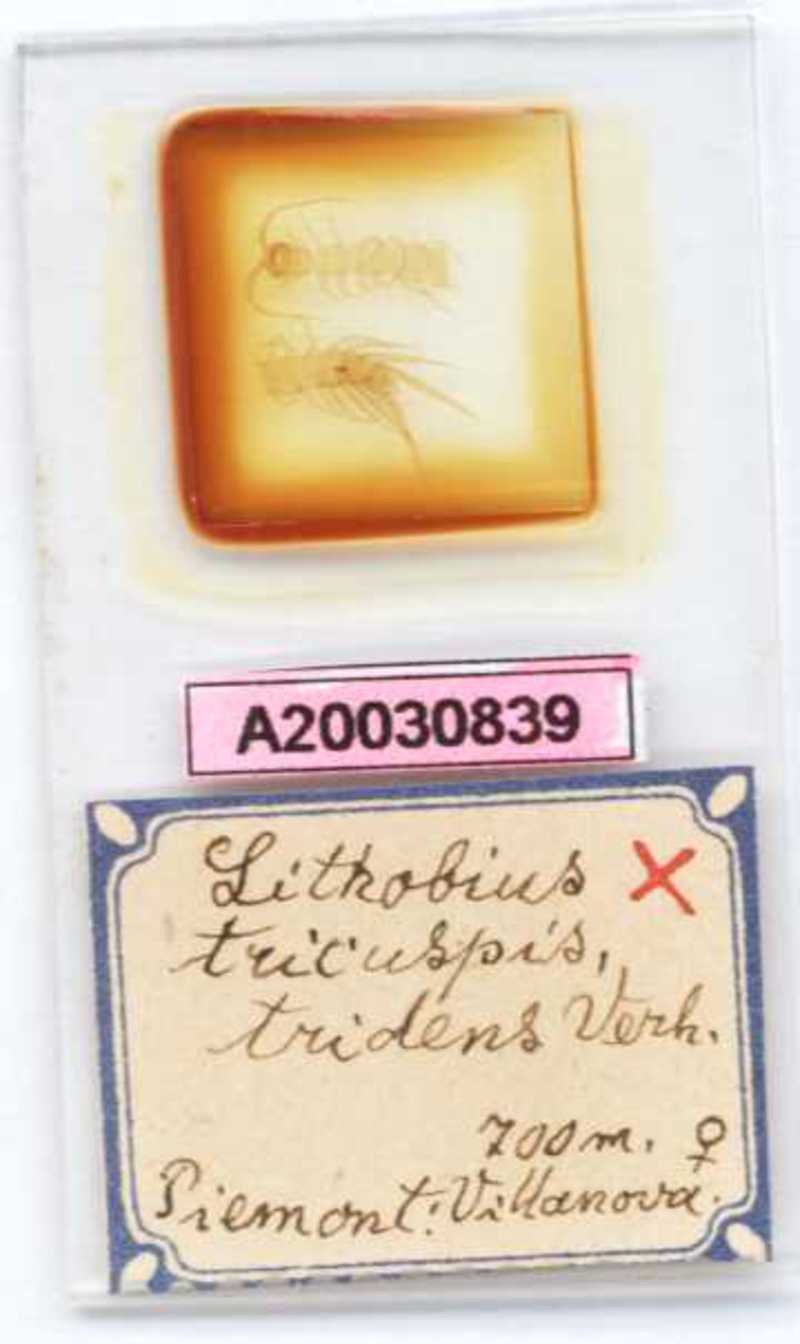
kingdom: Animalia
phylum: Arthropoda
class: Chilopoda
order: Lithobiomorpha
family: Lithobiidae
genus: Lithobius
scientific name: Lithobius tricuspis
